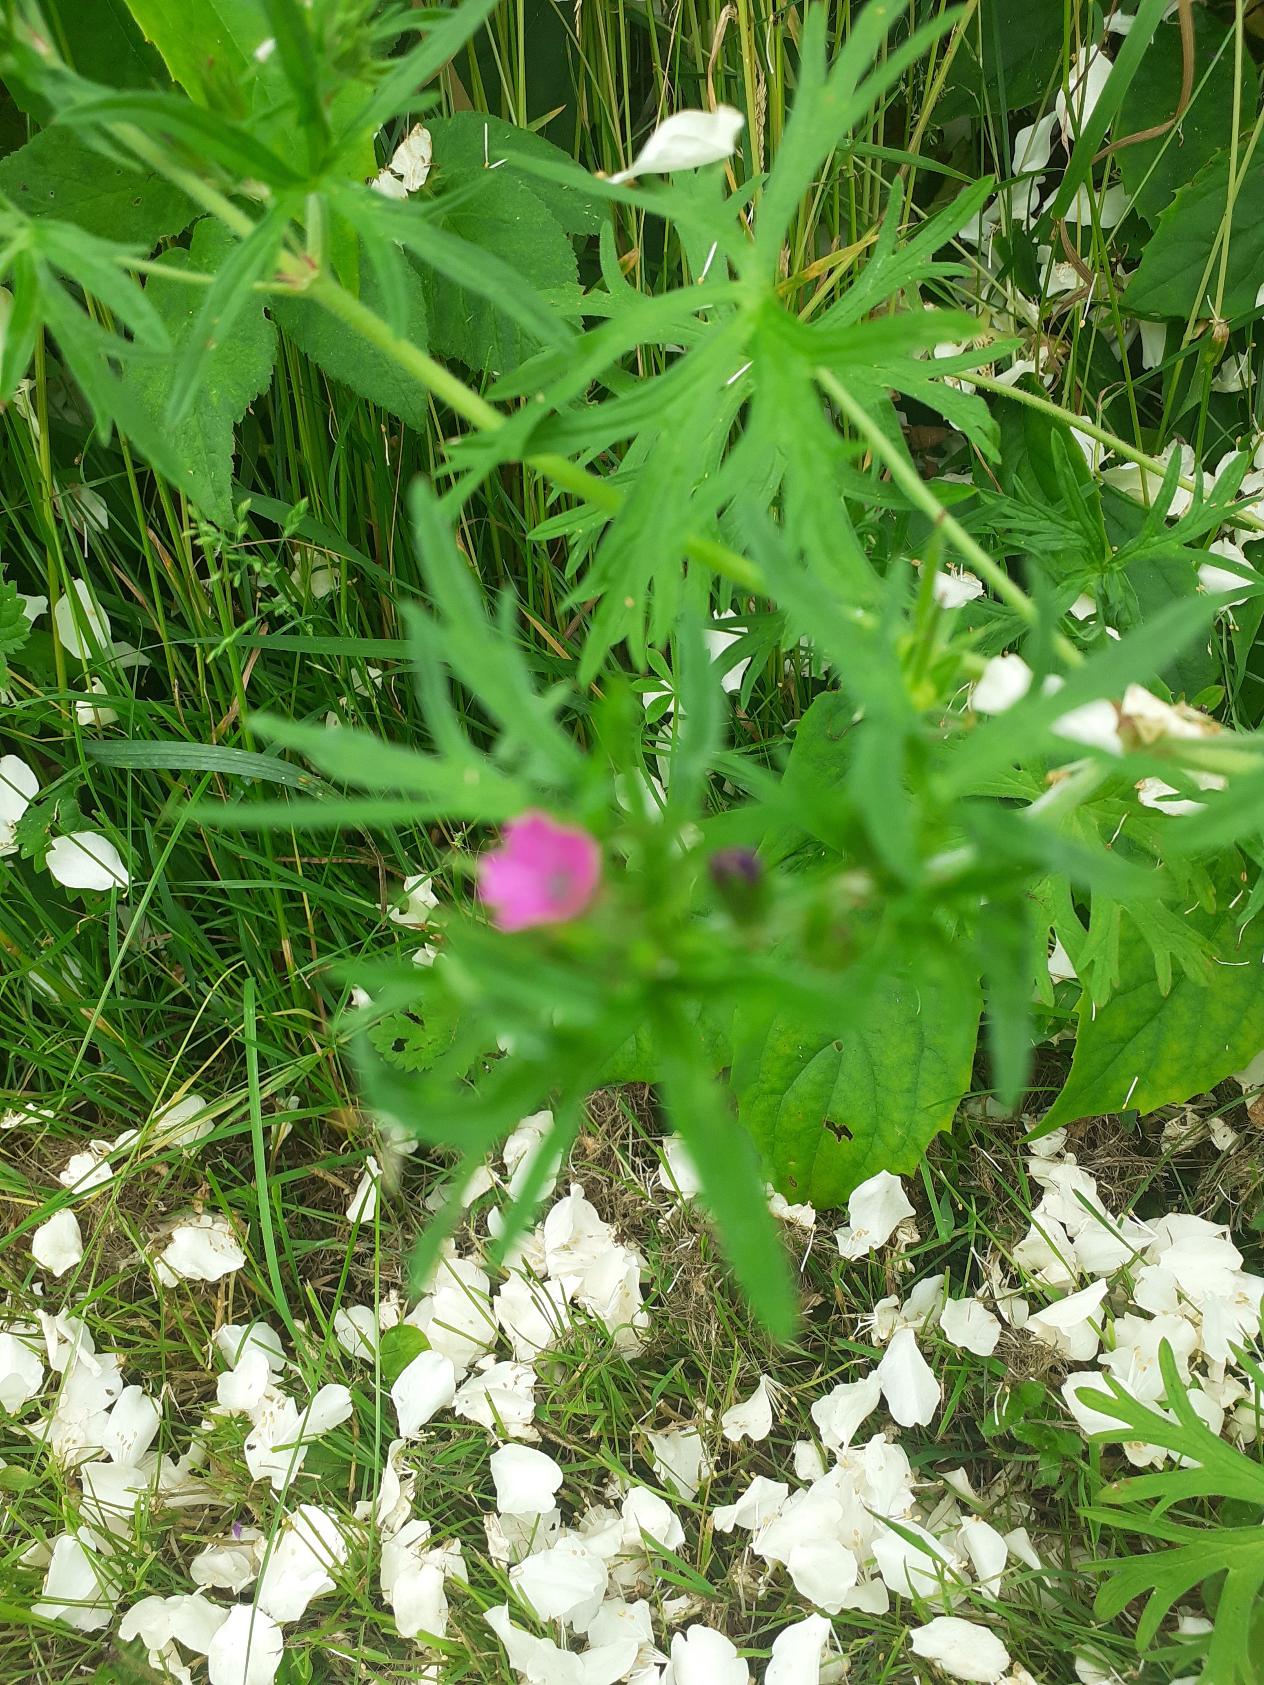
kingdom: Plantae
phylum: Tracheophyta
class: Magnoliopsida
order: Geraniales
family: Geraniaceae
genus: Geranium
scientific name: Geranium dissectum
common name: Kløftet storkenæb
